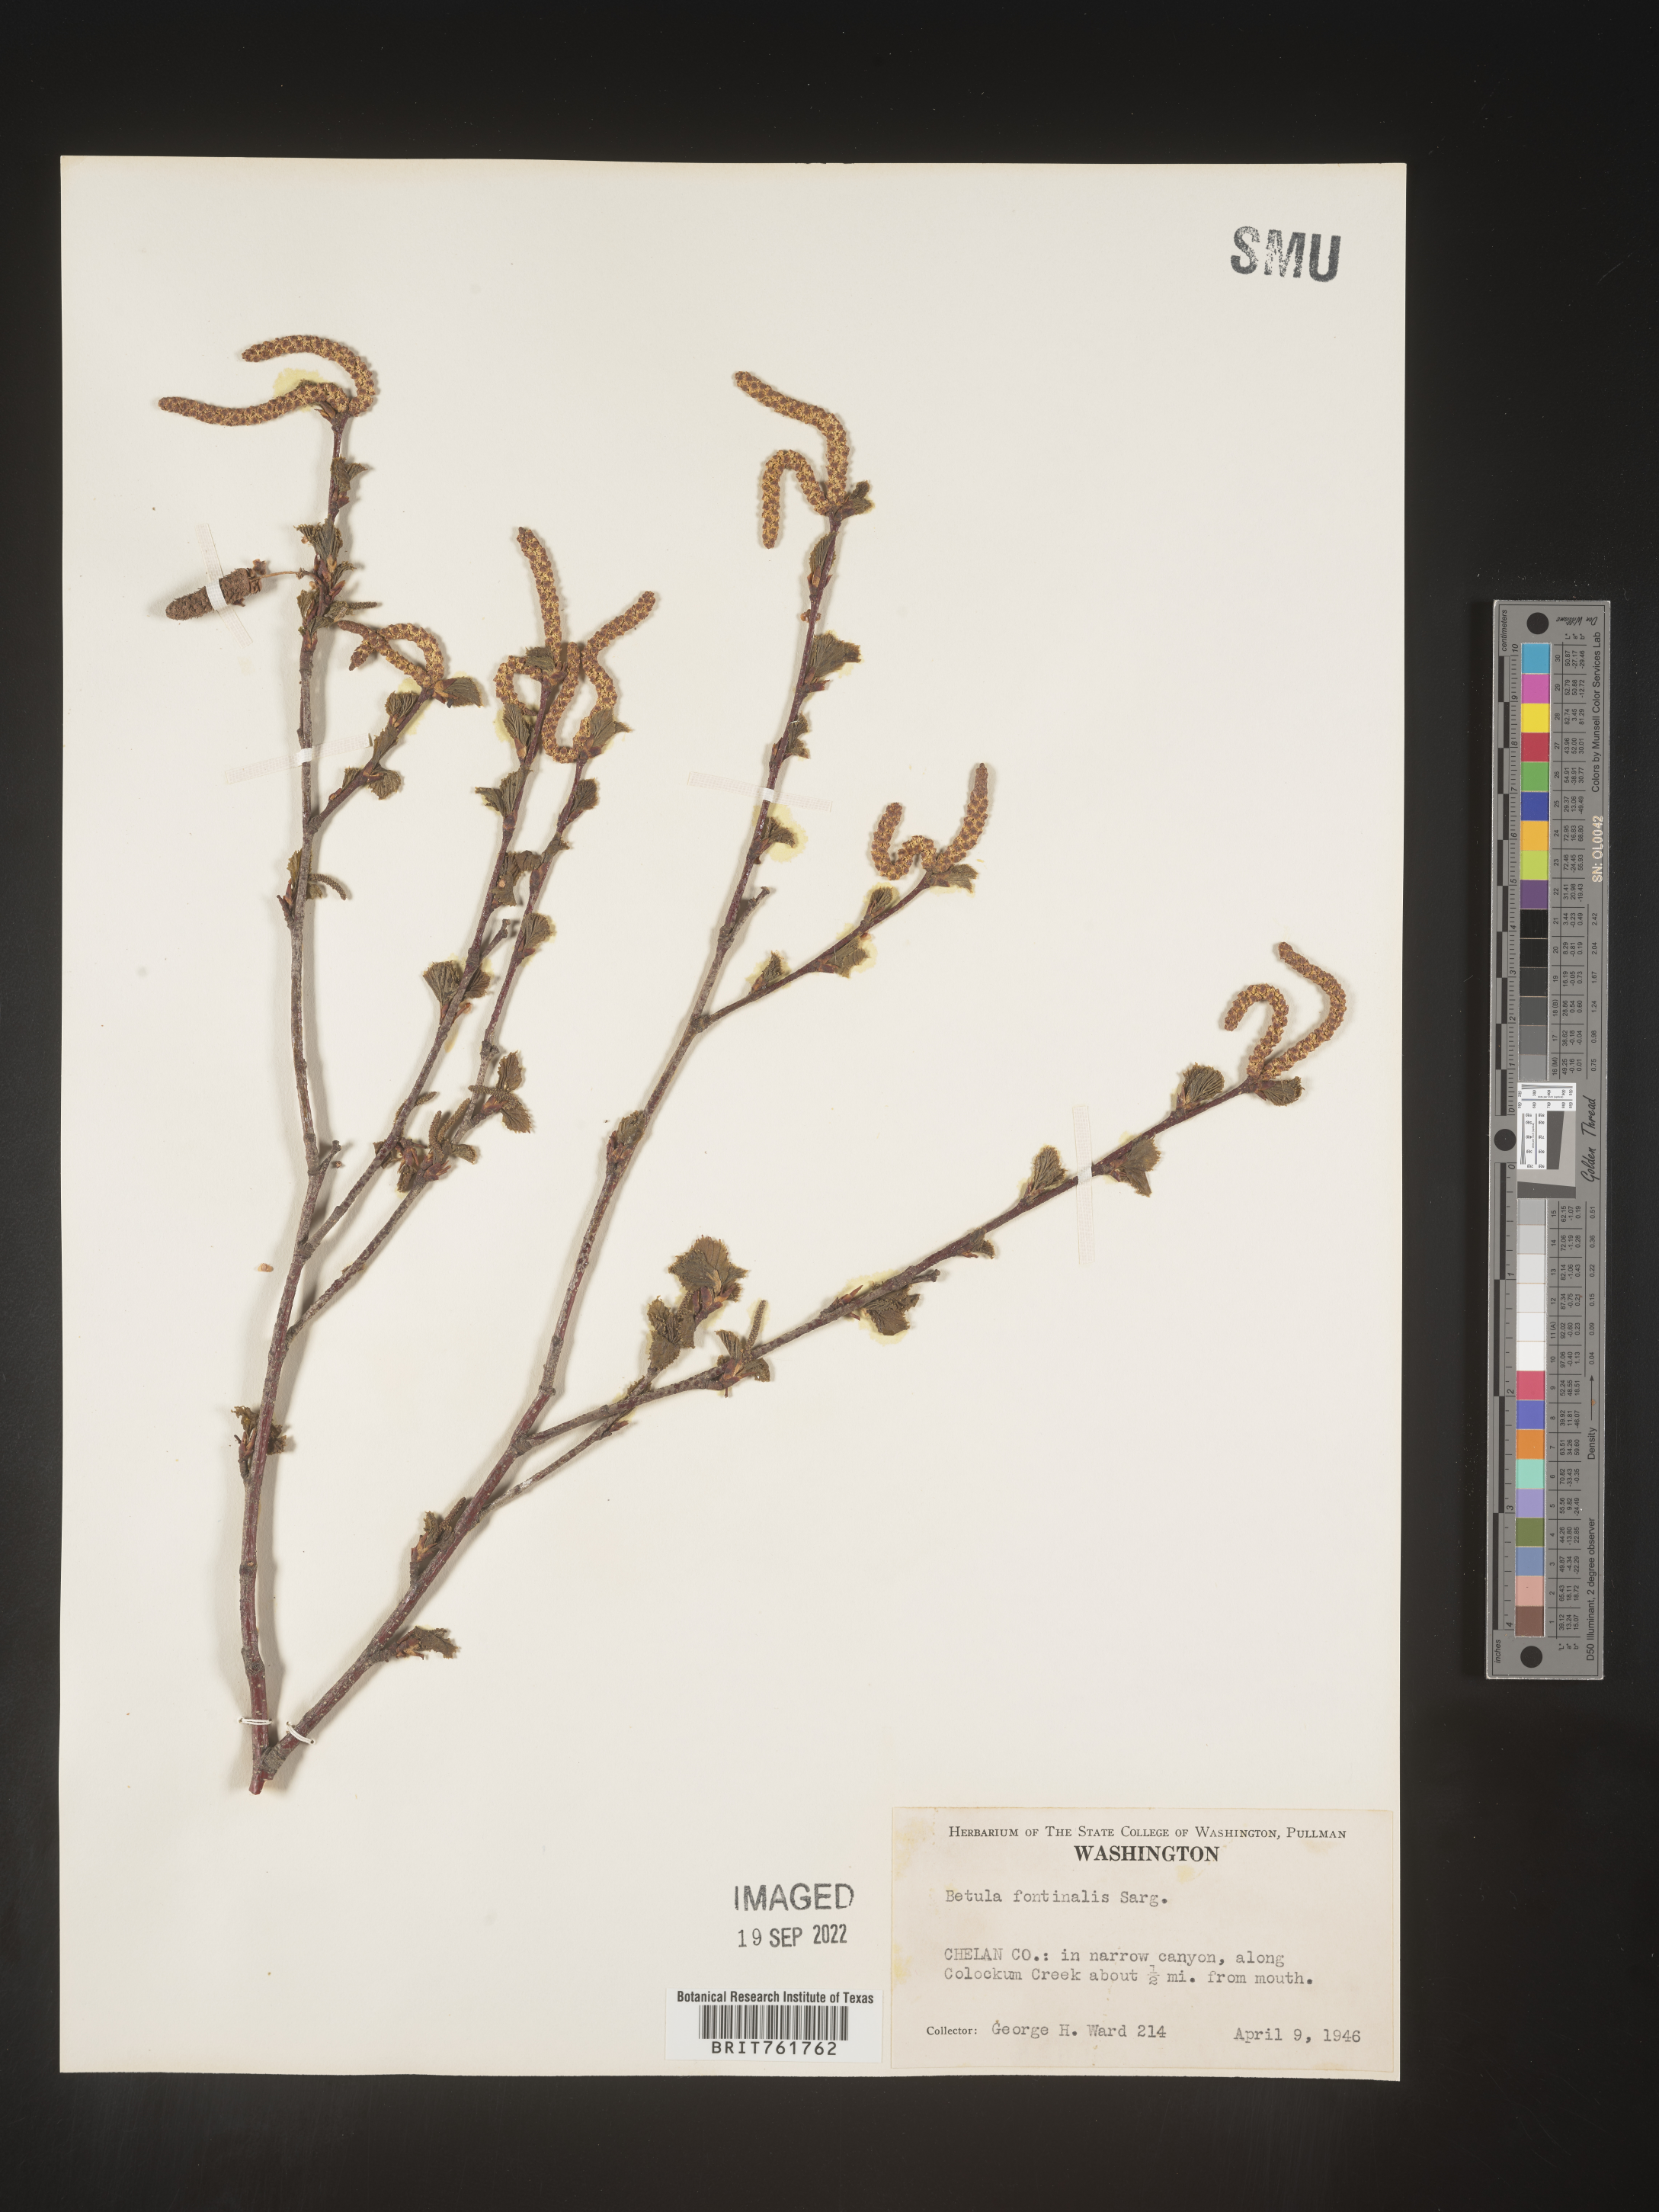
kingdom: Plantae
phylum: Tracheophyta
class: Magnoliopsida
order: Fagales
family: Betulaceae
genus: Betula
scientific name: Betula occidentalis
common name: River birch
